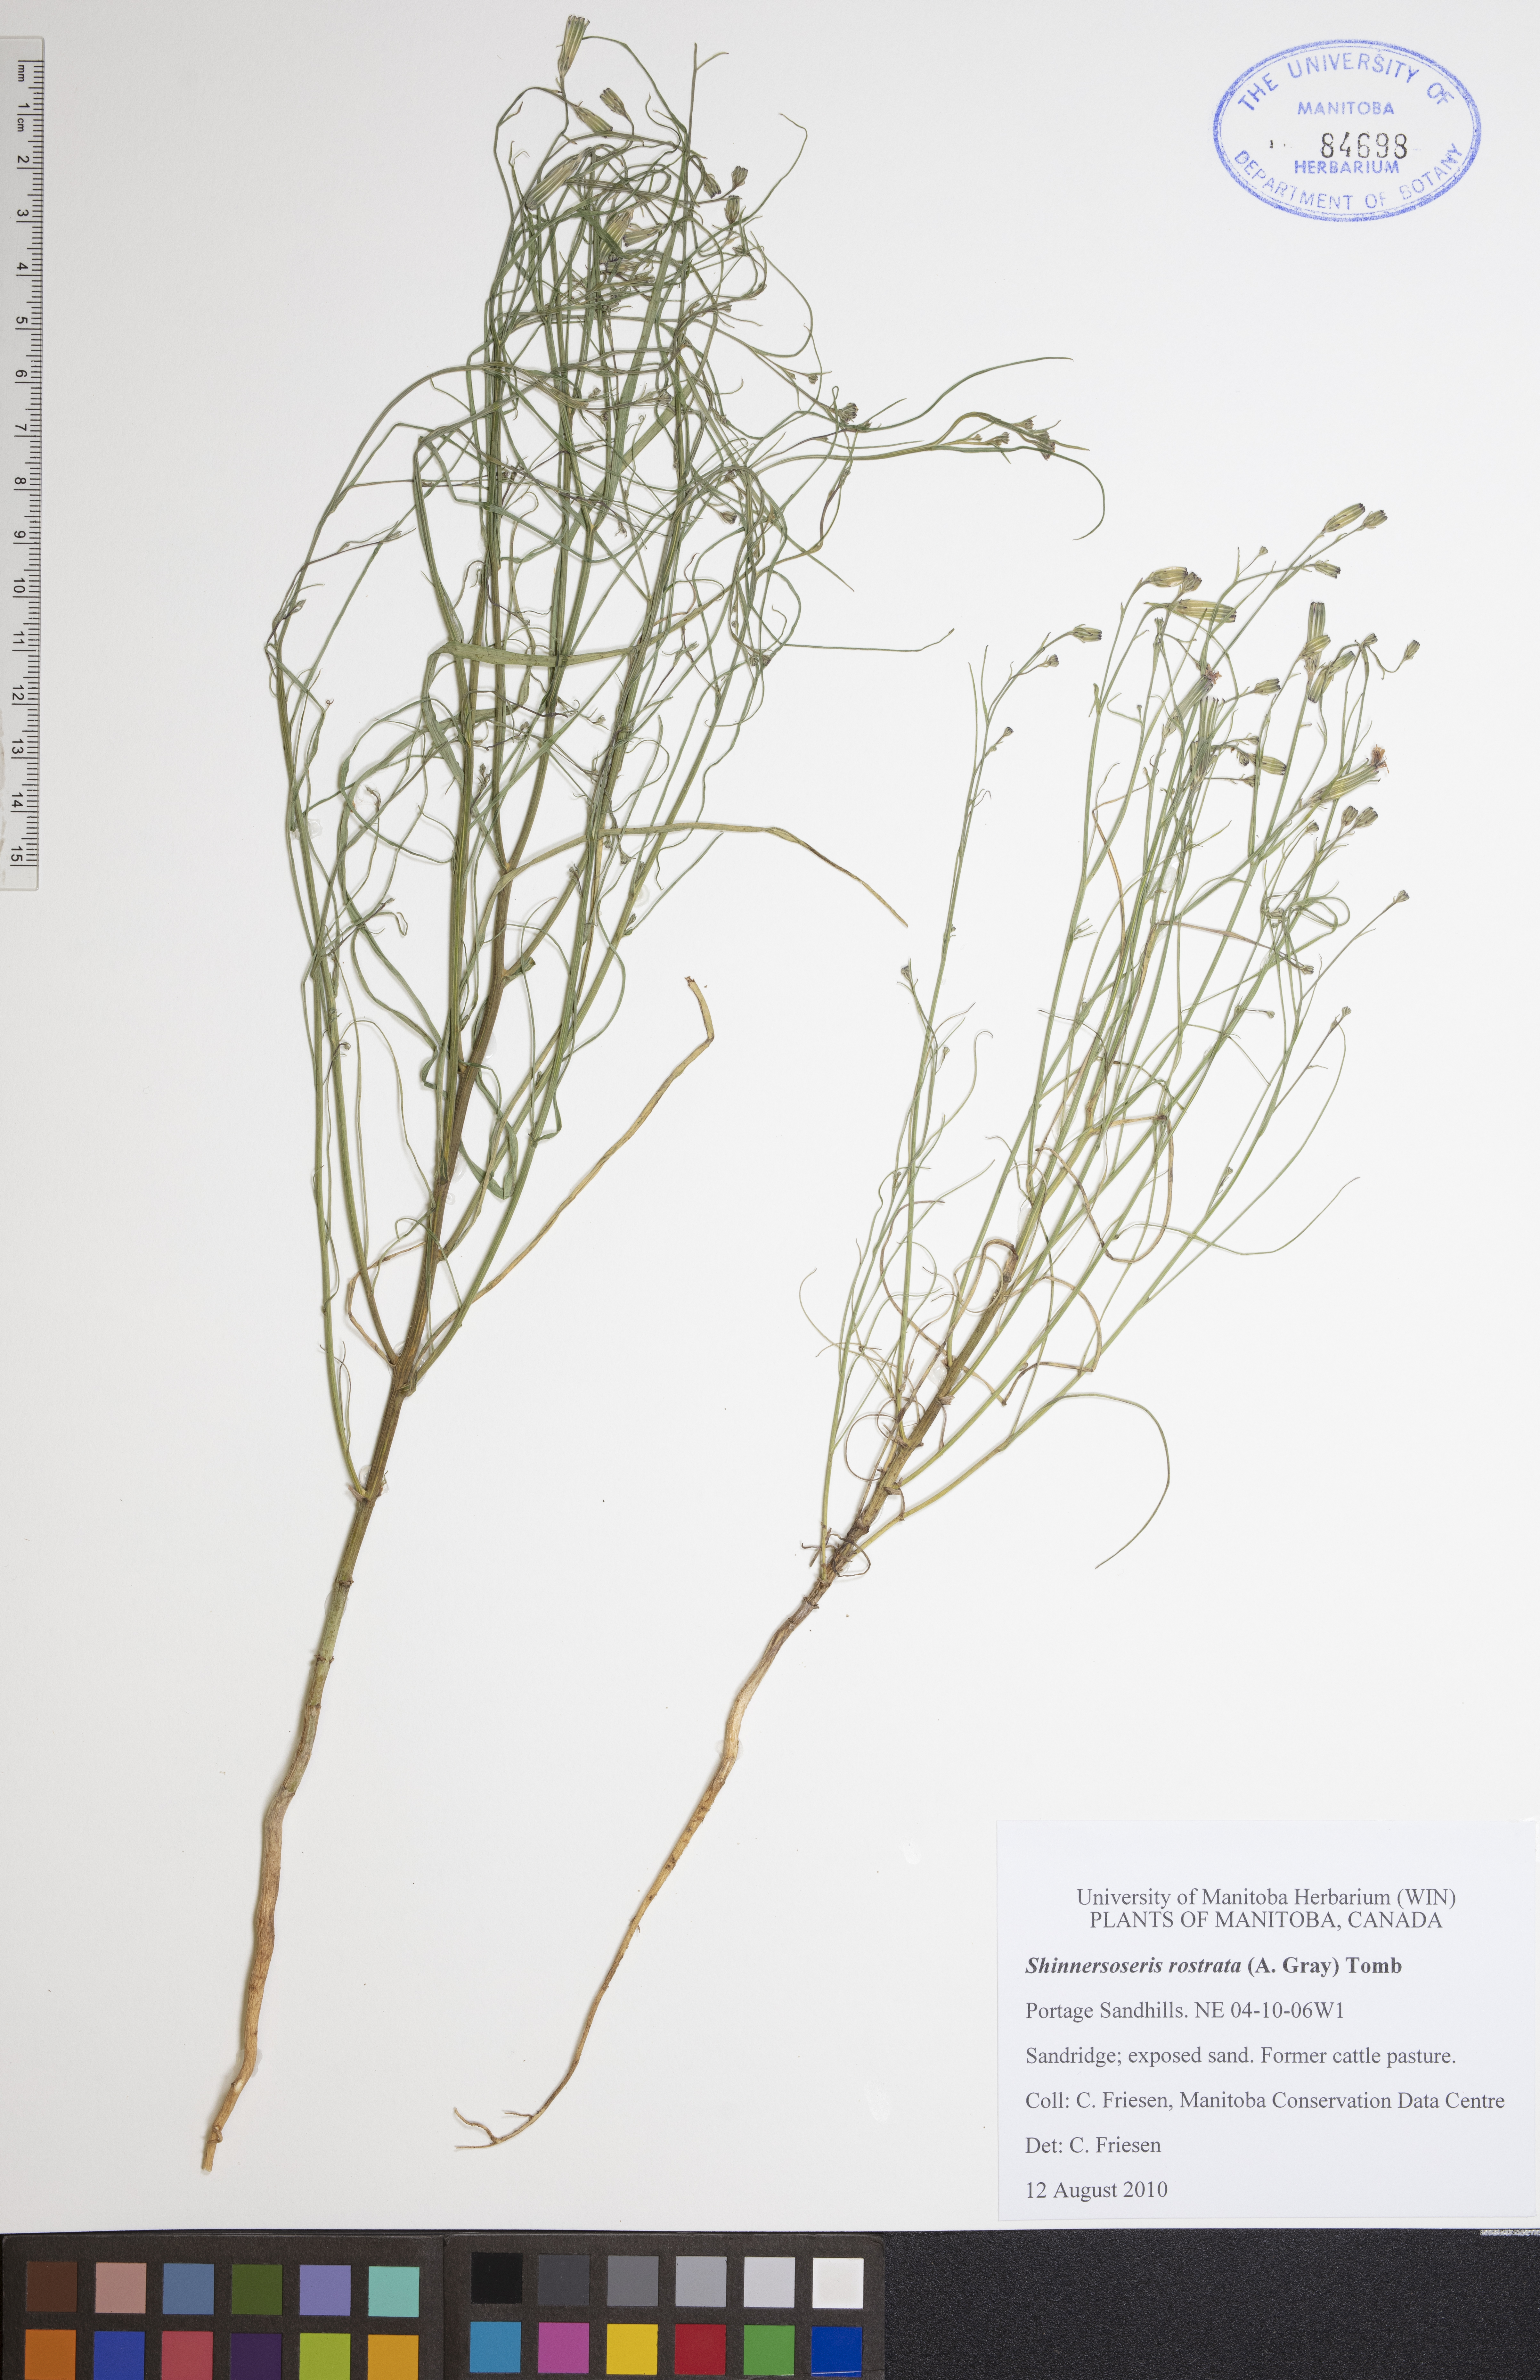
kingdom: Plantae
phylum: Tracheophyta
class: Magnoliopsida
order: Asterales
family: Asteraceae
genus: Shinnersoseris
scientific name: Shinnersoseris rostrata
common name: Annual skeleton-weed
